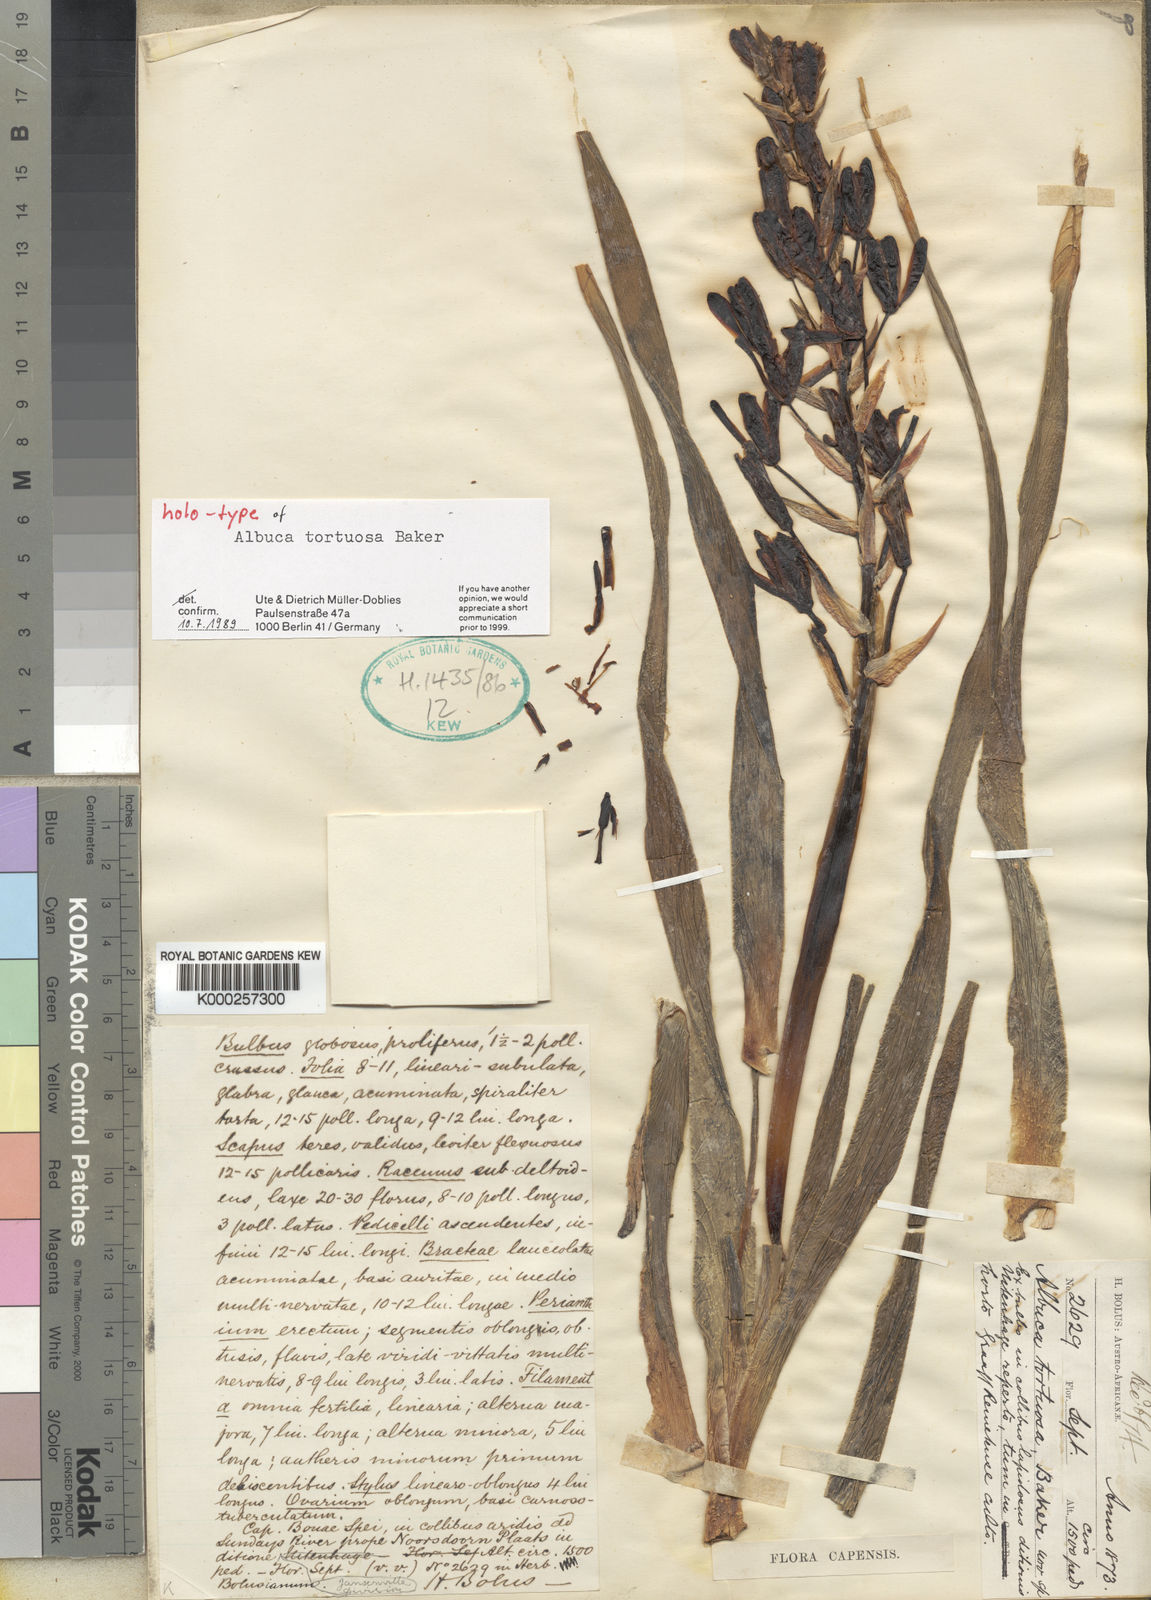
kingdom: Plantae
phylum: Tracheophyta
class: Liliopsida
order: Asparagales
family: Asparagaceae
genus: Albuca
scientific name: Albuca tortuosa
